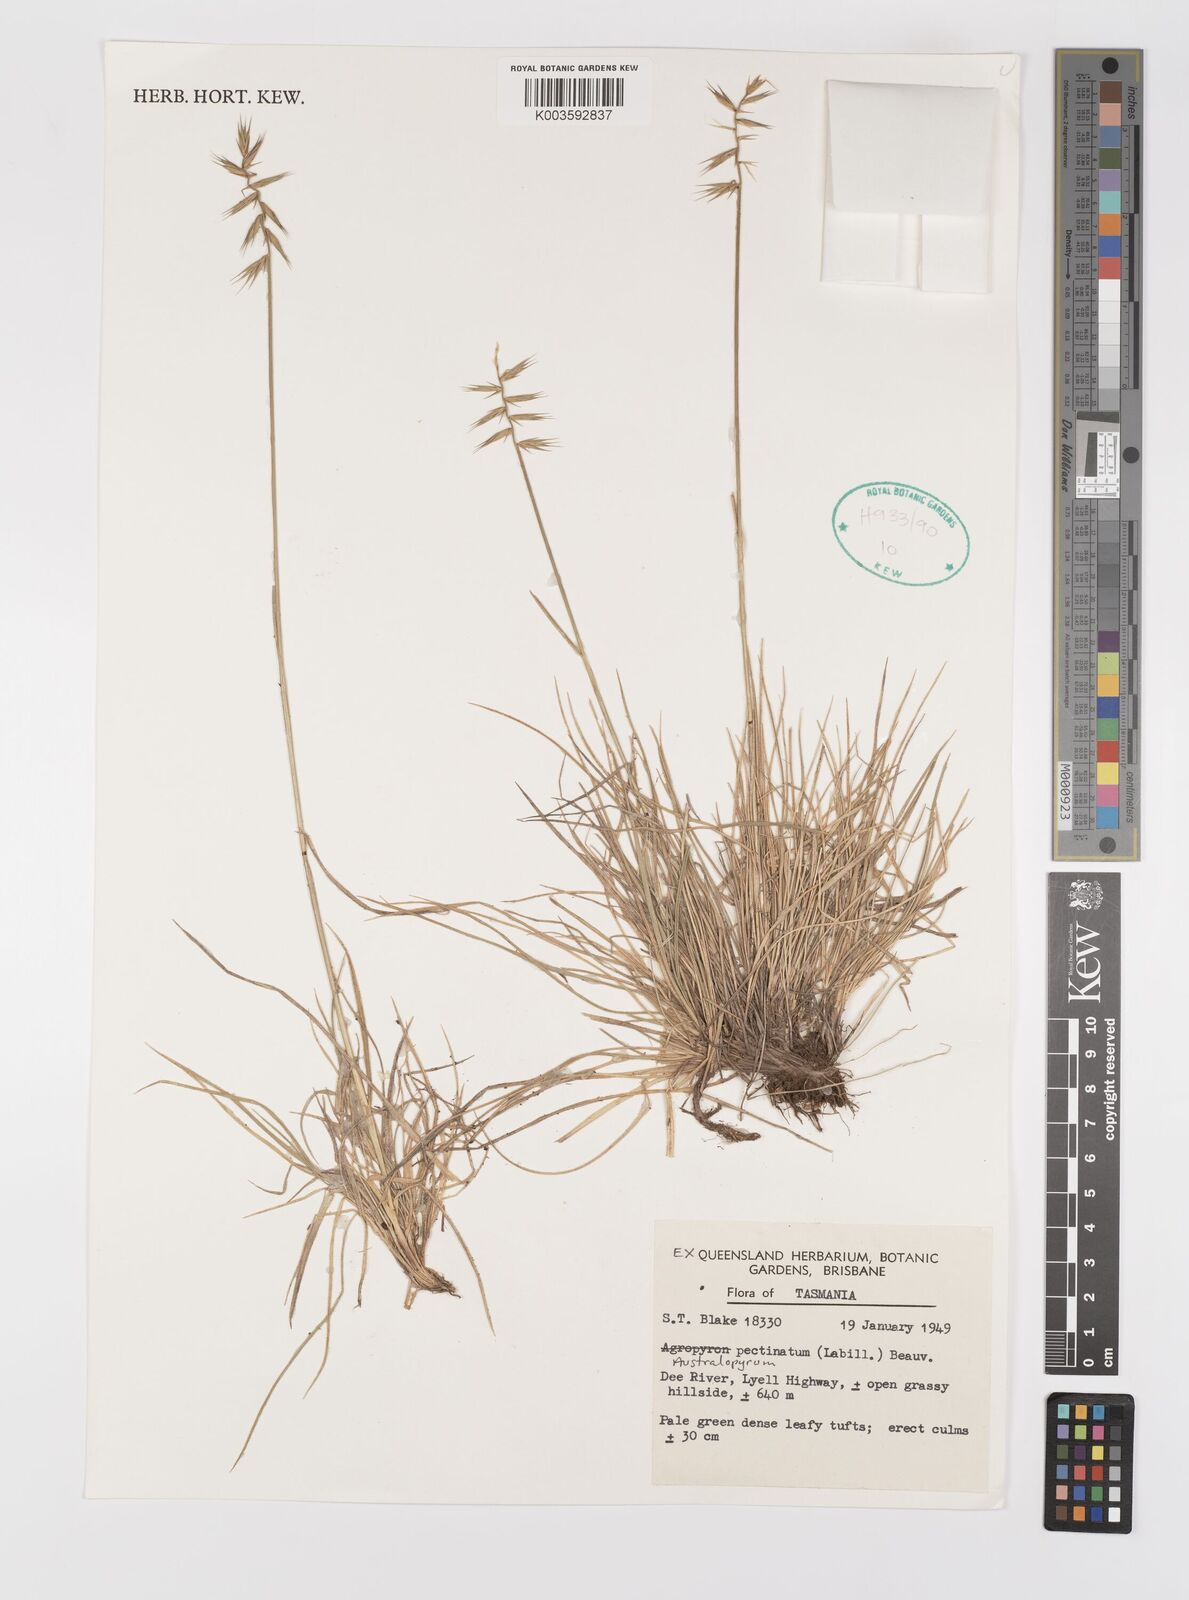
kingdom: Plantae
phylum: Tracheophyta
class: Liliopsida
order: Poales
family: Poaceae
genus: Australopyrum
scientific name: Australopyrum pectinatum
